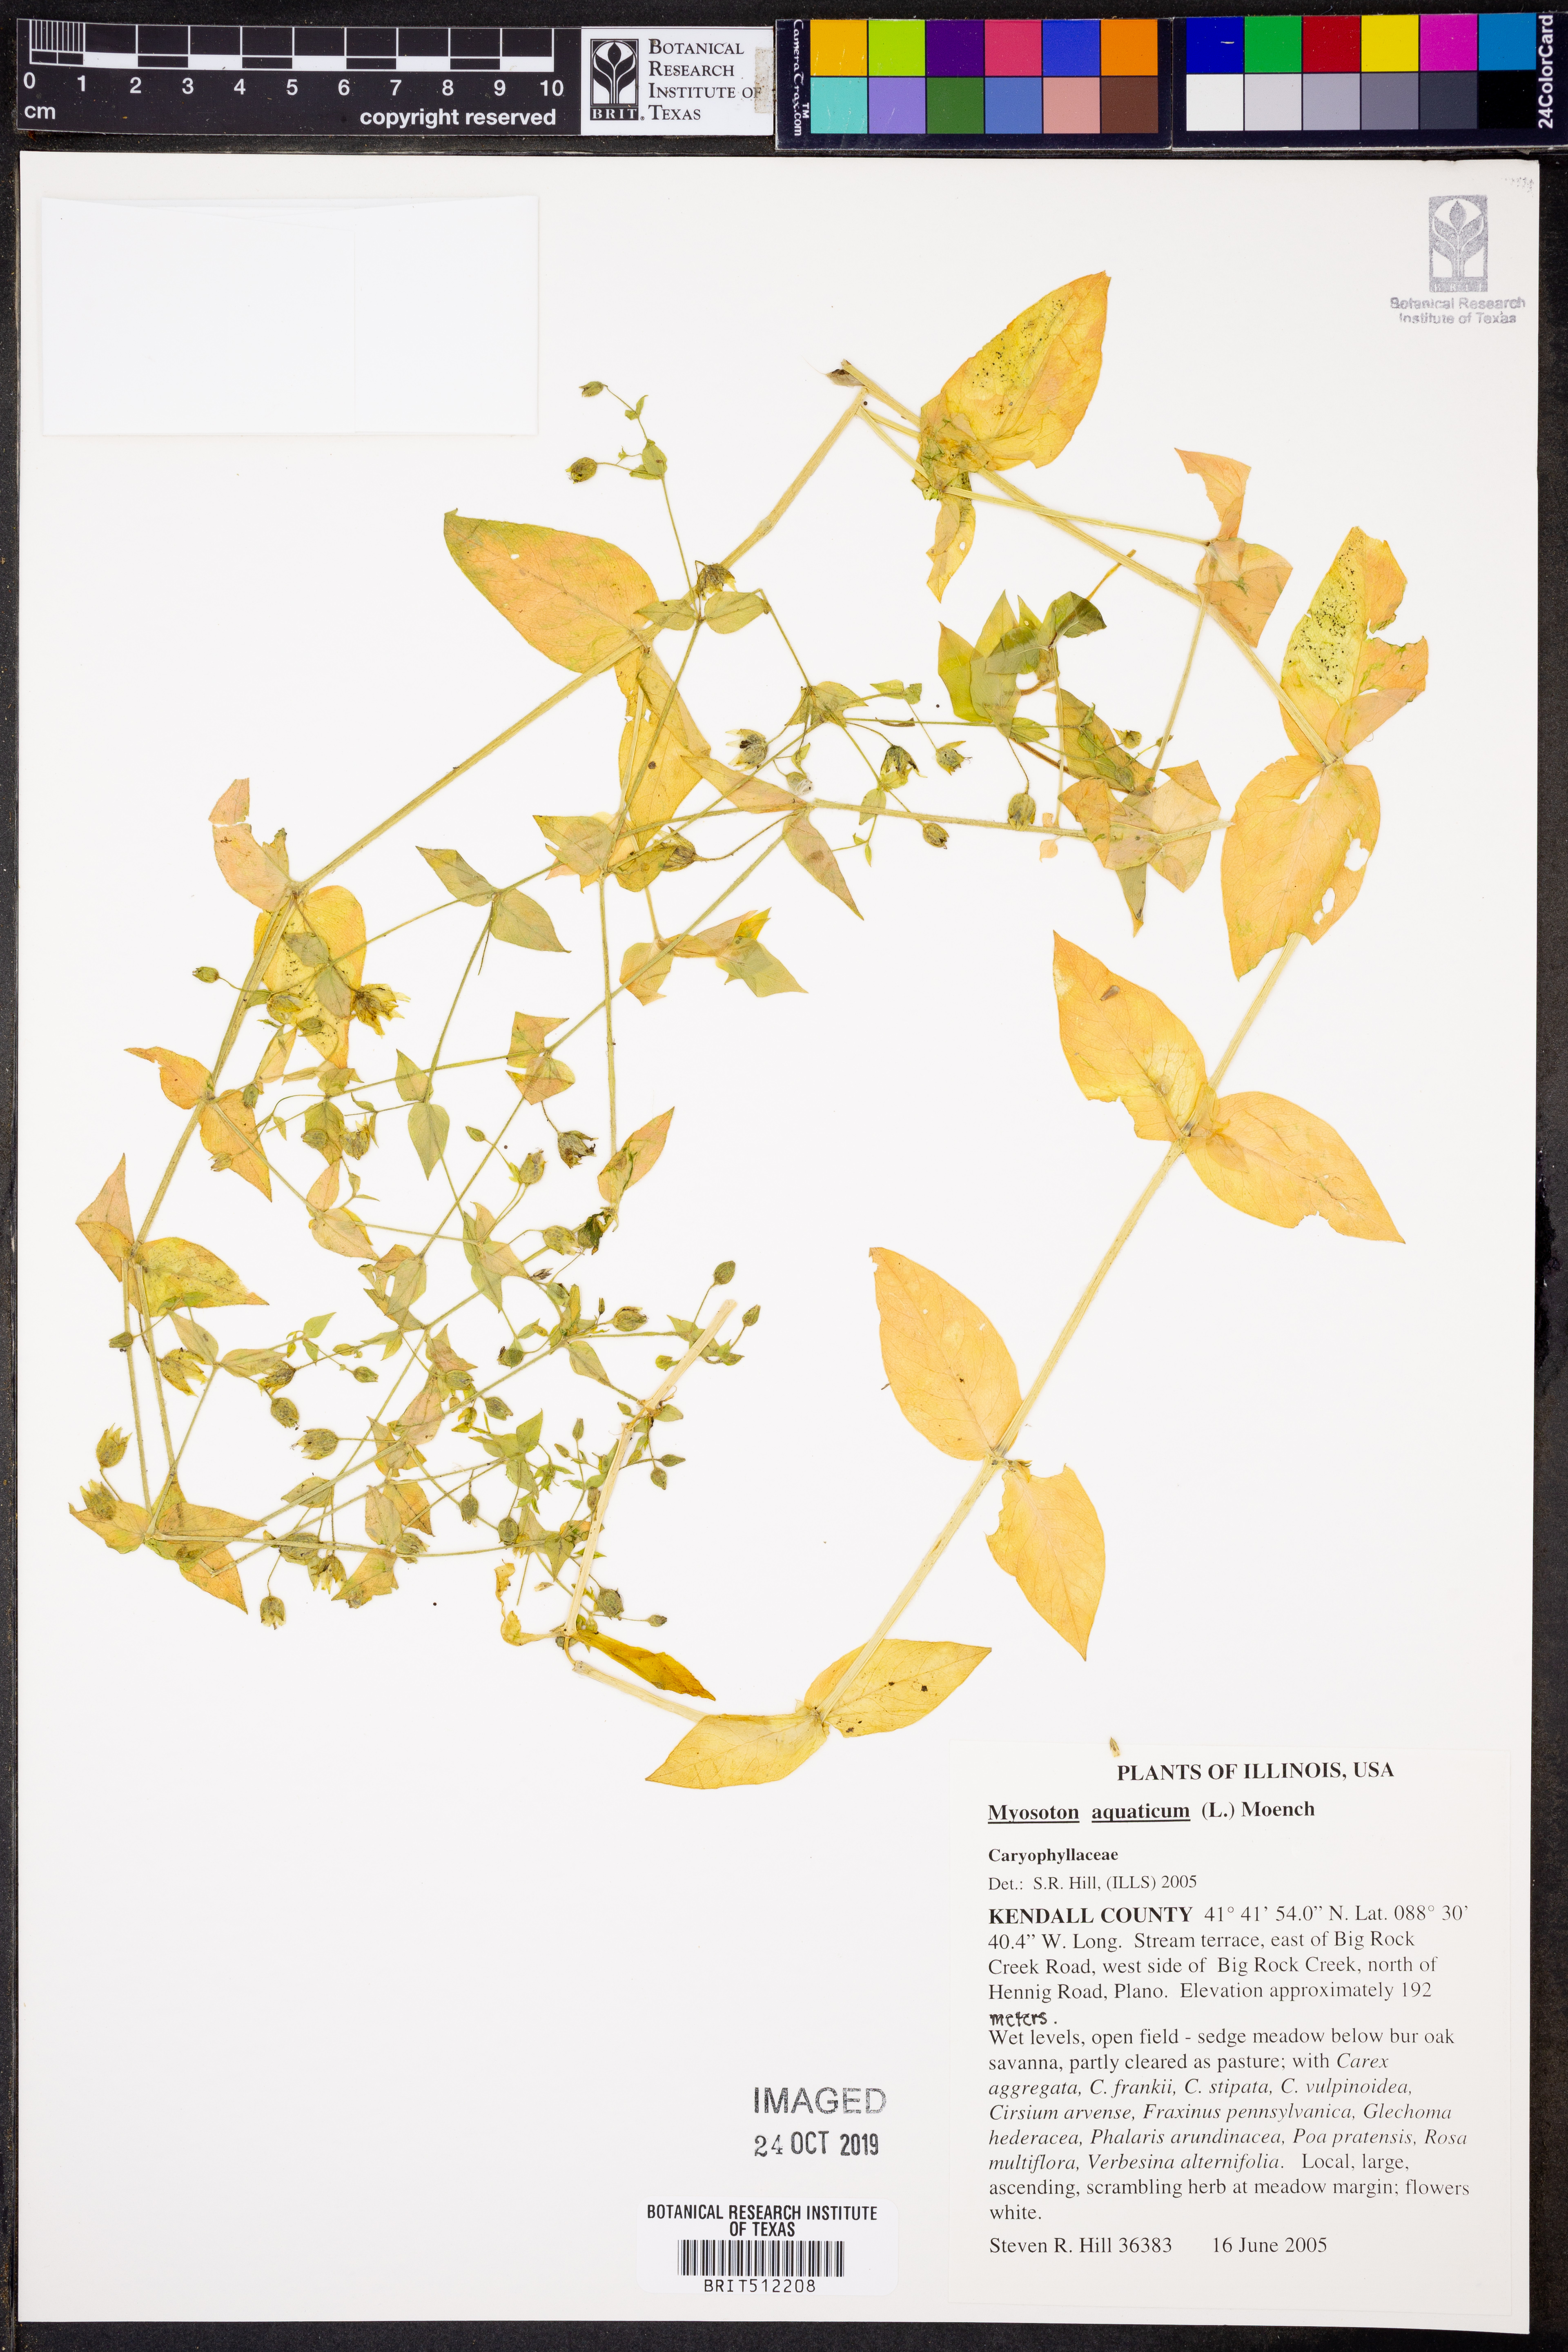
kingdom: Plantae
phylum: Tracheophyta
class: Magnoliopsida
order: Caryophyllales
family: Caryophyllaceae
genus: Stellaria
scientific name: Stellaria aquatica
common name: Water chickweed
